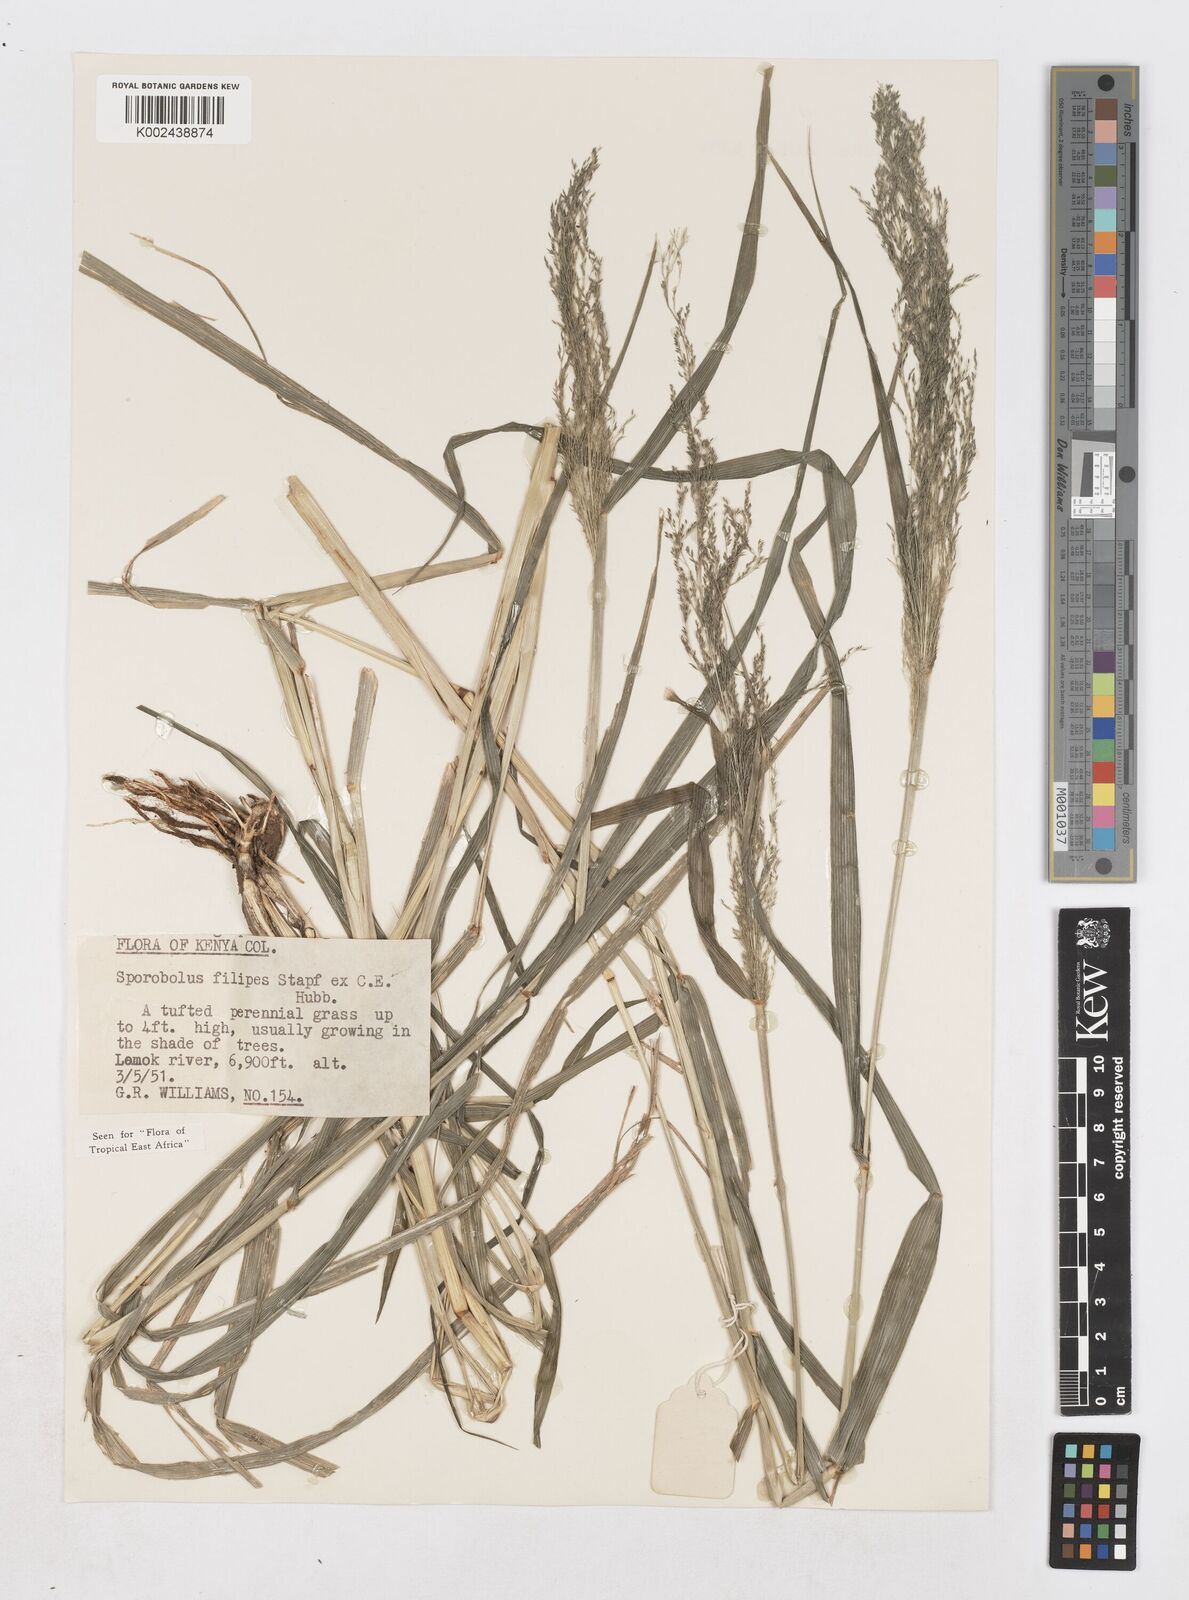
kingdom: Plantae
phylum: Tracheophyta
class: Liliopsida
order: Poales
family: Poaceae
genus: Sporobolus
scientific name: Sporobolus agrostoides
